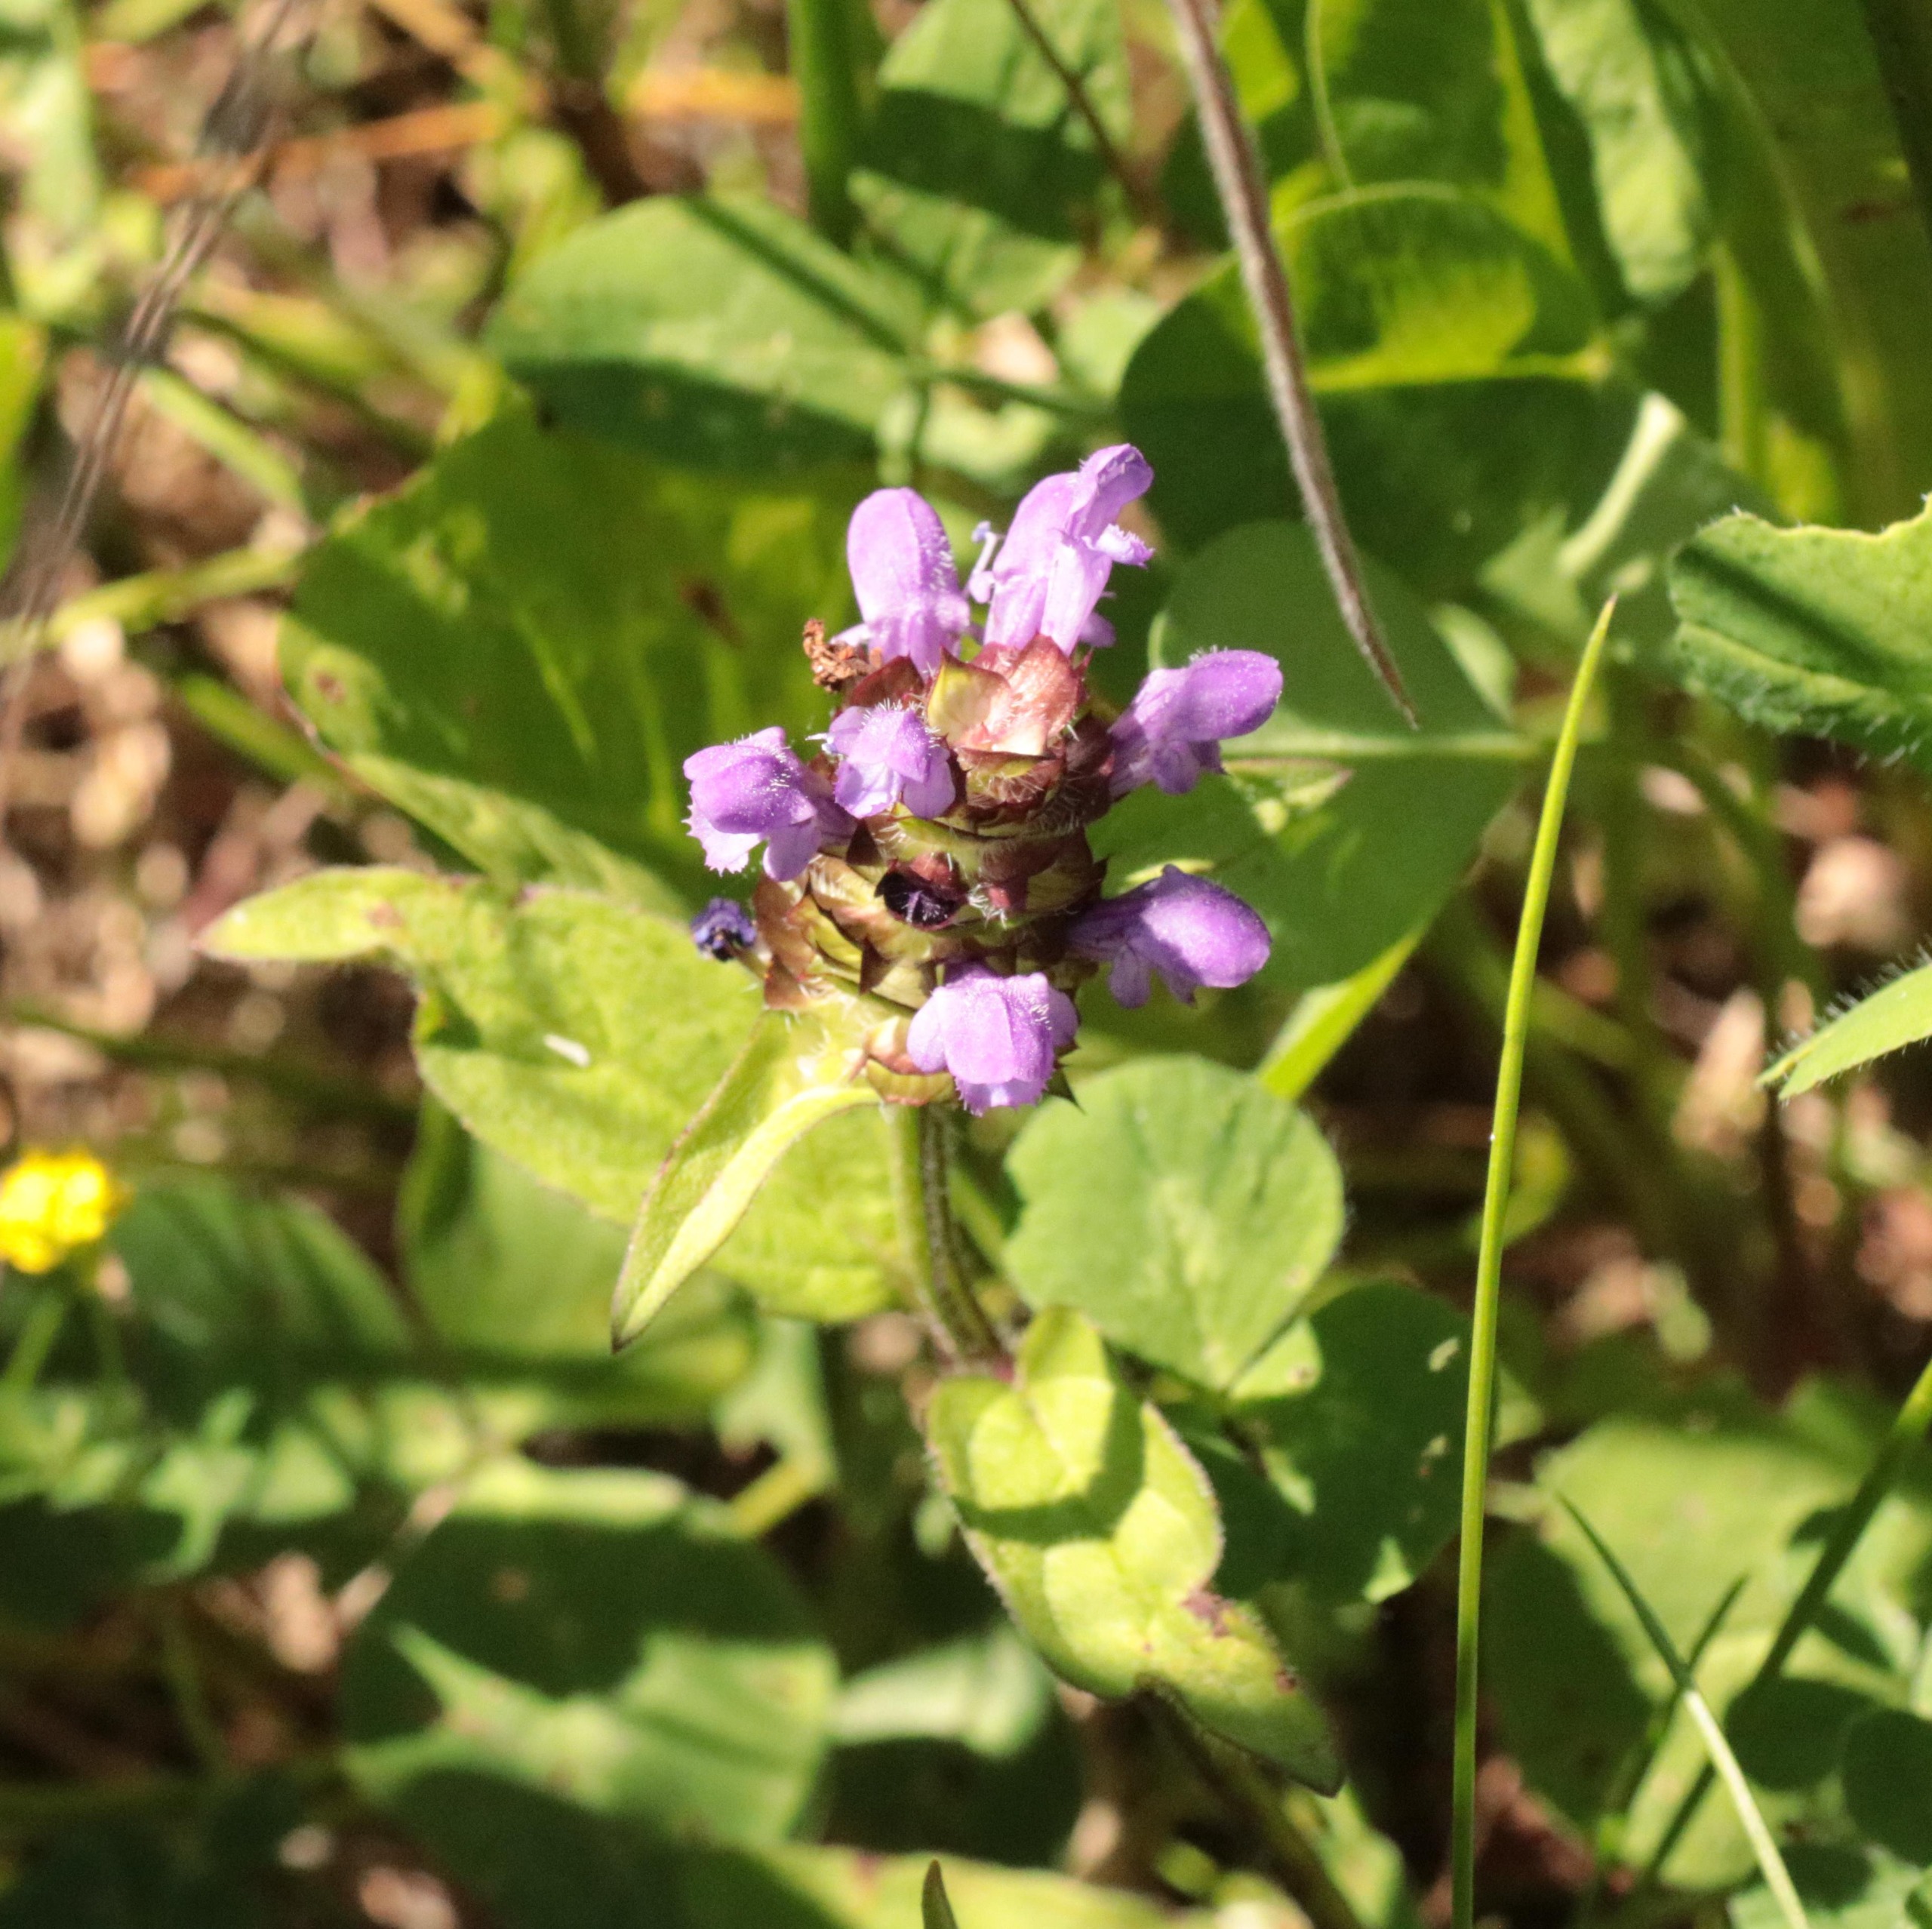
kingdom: Plantae
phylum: Tracheophyta
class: Magnoliopsida
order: Lamiales
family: Lamiaceae
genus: Prunella
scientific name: Prunella vulgaris
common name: Almindelig brunelle
